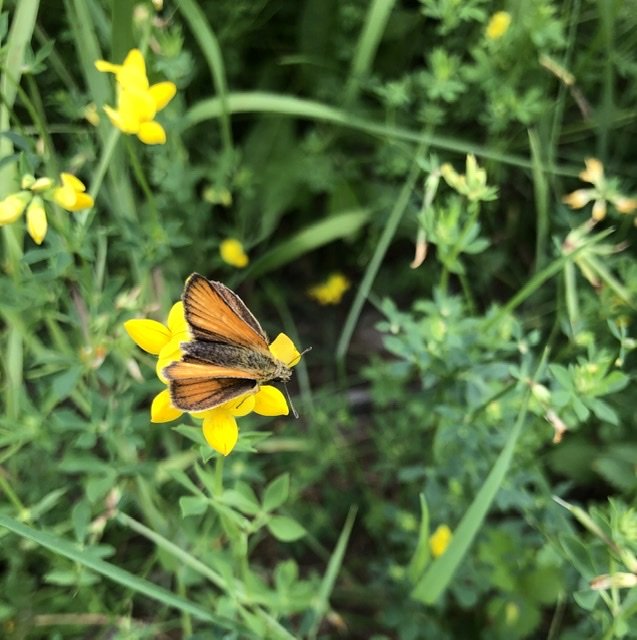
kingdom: Animalia
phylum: Arthropoda
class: Insecta
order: Lepidoptera
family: Hesperiidae
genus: Thymelicus
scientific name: Thymelicus lineola
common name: European Skipper
